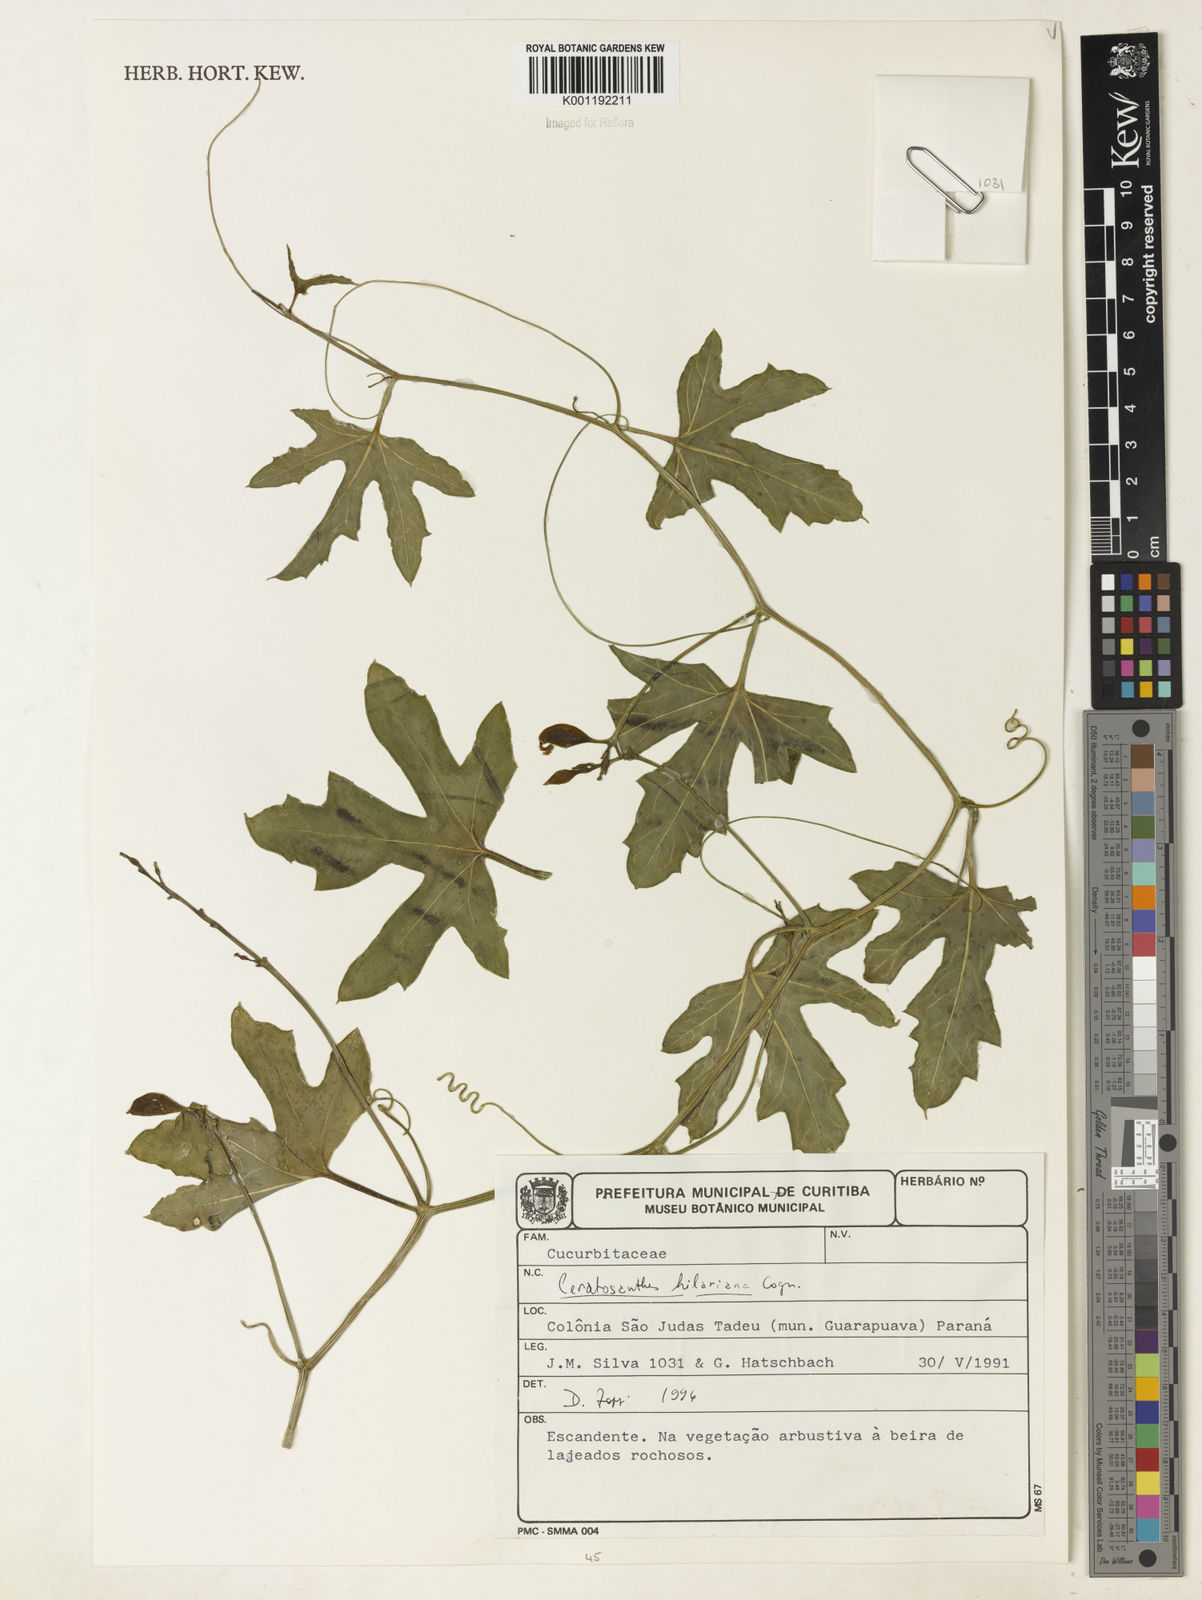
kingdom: Plantae
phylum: Tracheophyta
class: Magnoliopsida
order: Cucurbitales
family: Cucurbitaceae
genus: Ceratosanthes
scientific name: Ceratosanthes hilariana
